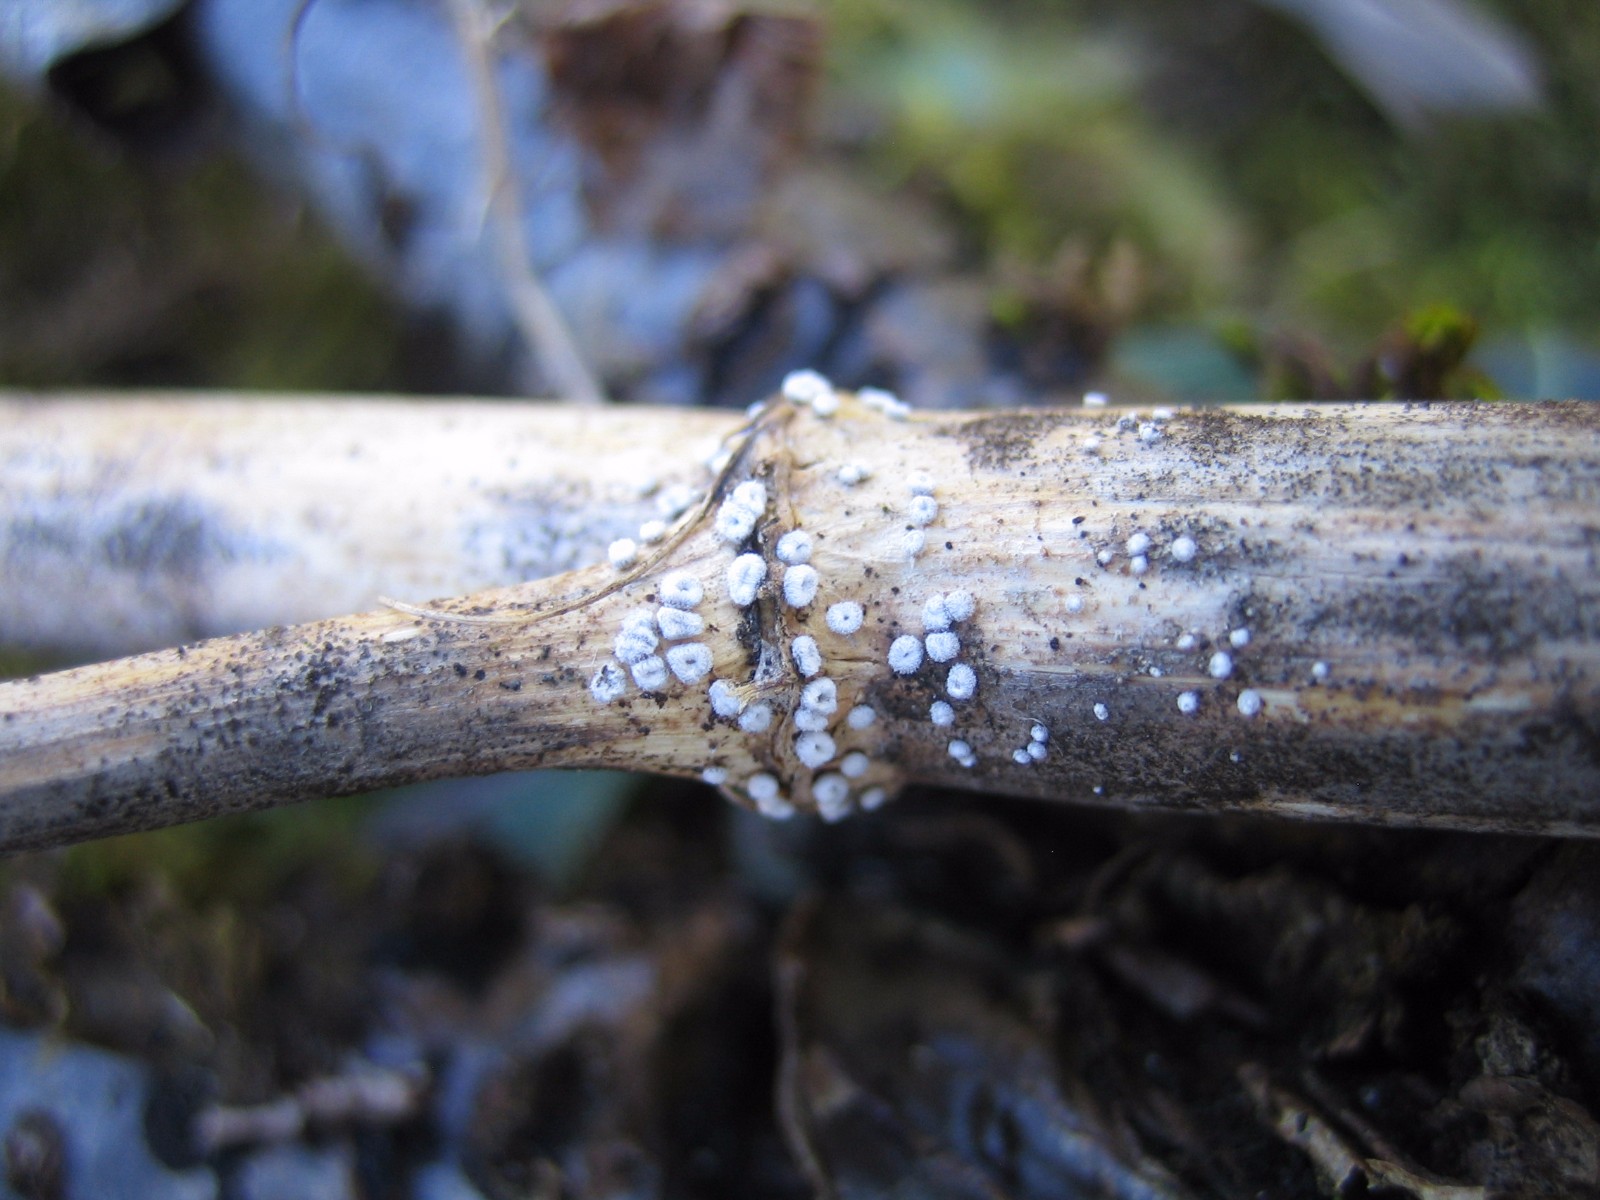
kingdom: Fungi
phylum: Basidiomycota
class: Agaricomycetes
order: Agaricales
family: Niaceae
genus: Lachnella
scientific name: Lachnella alboviolascens
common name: grå frynserede
